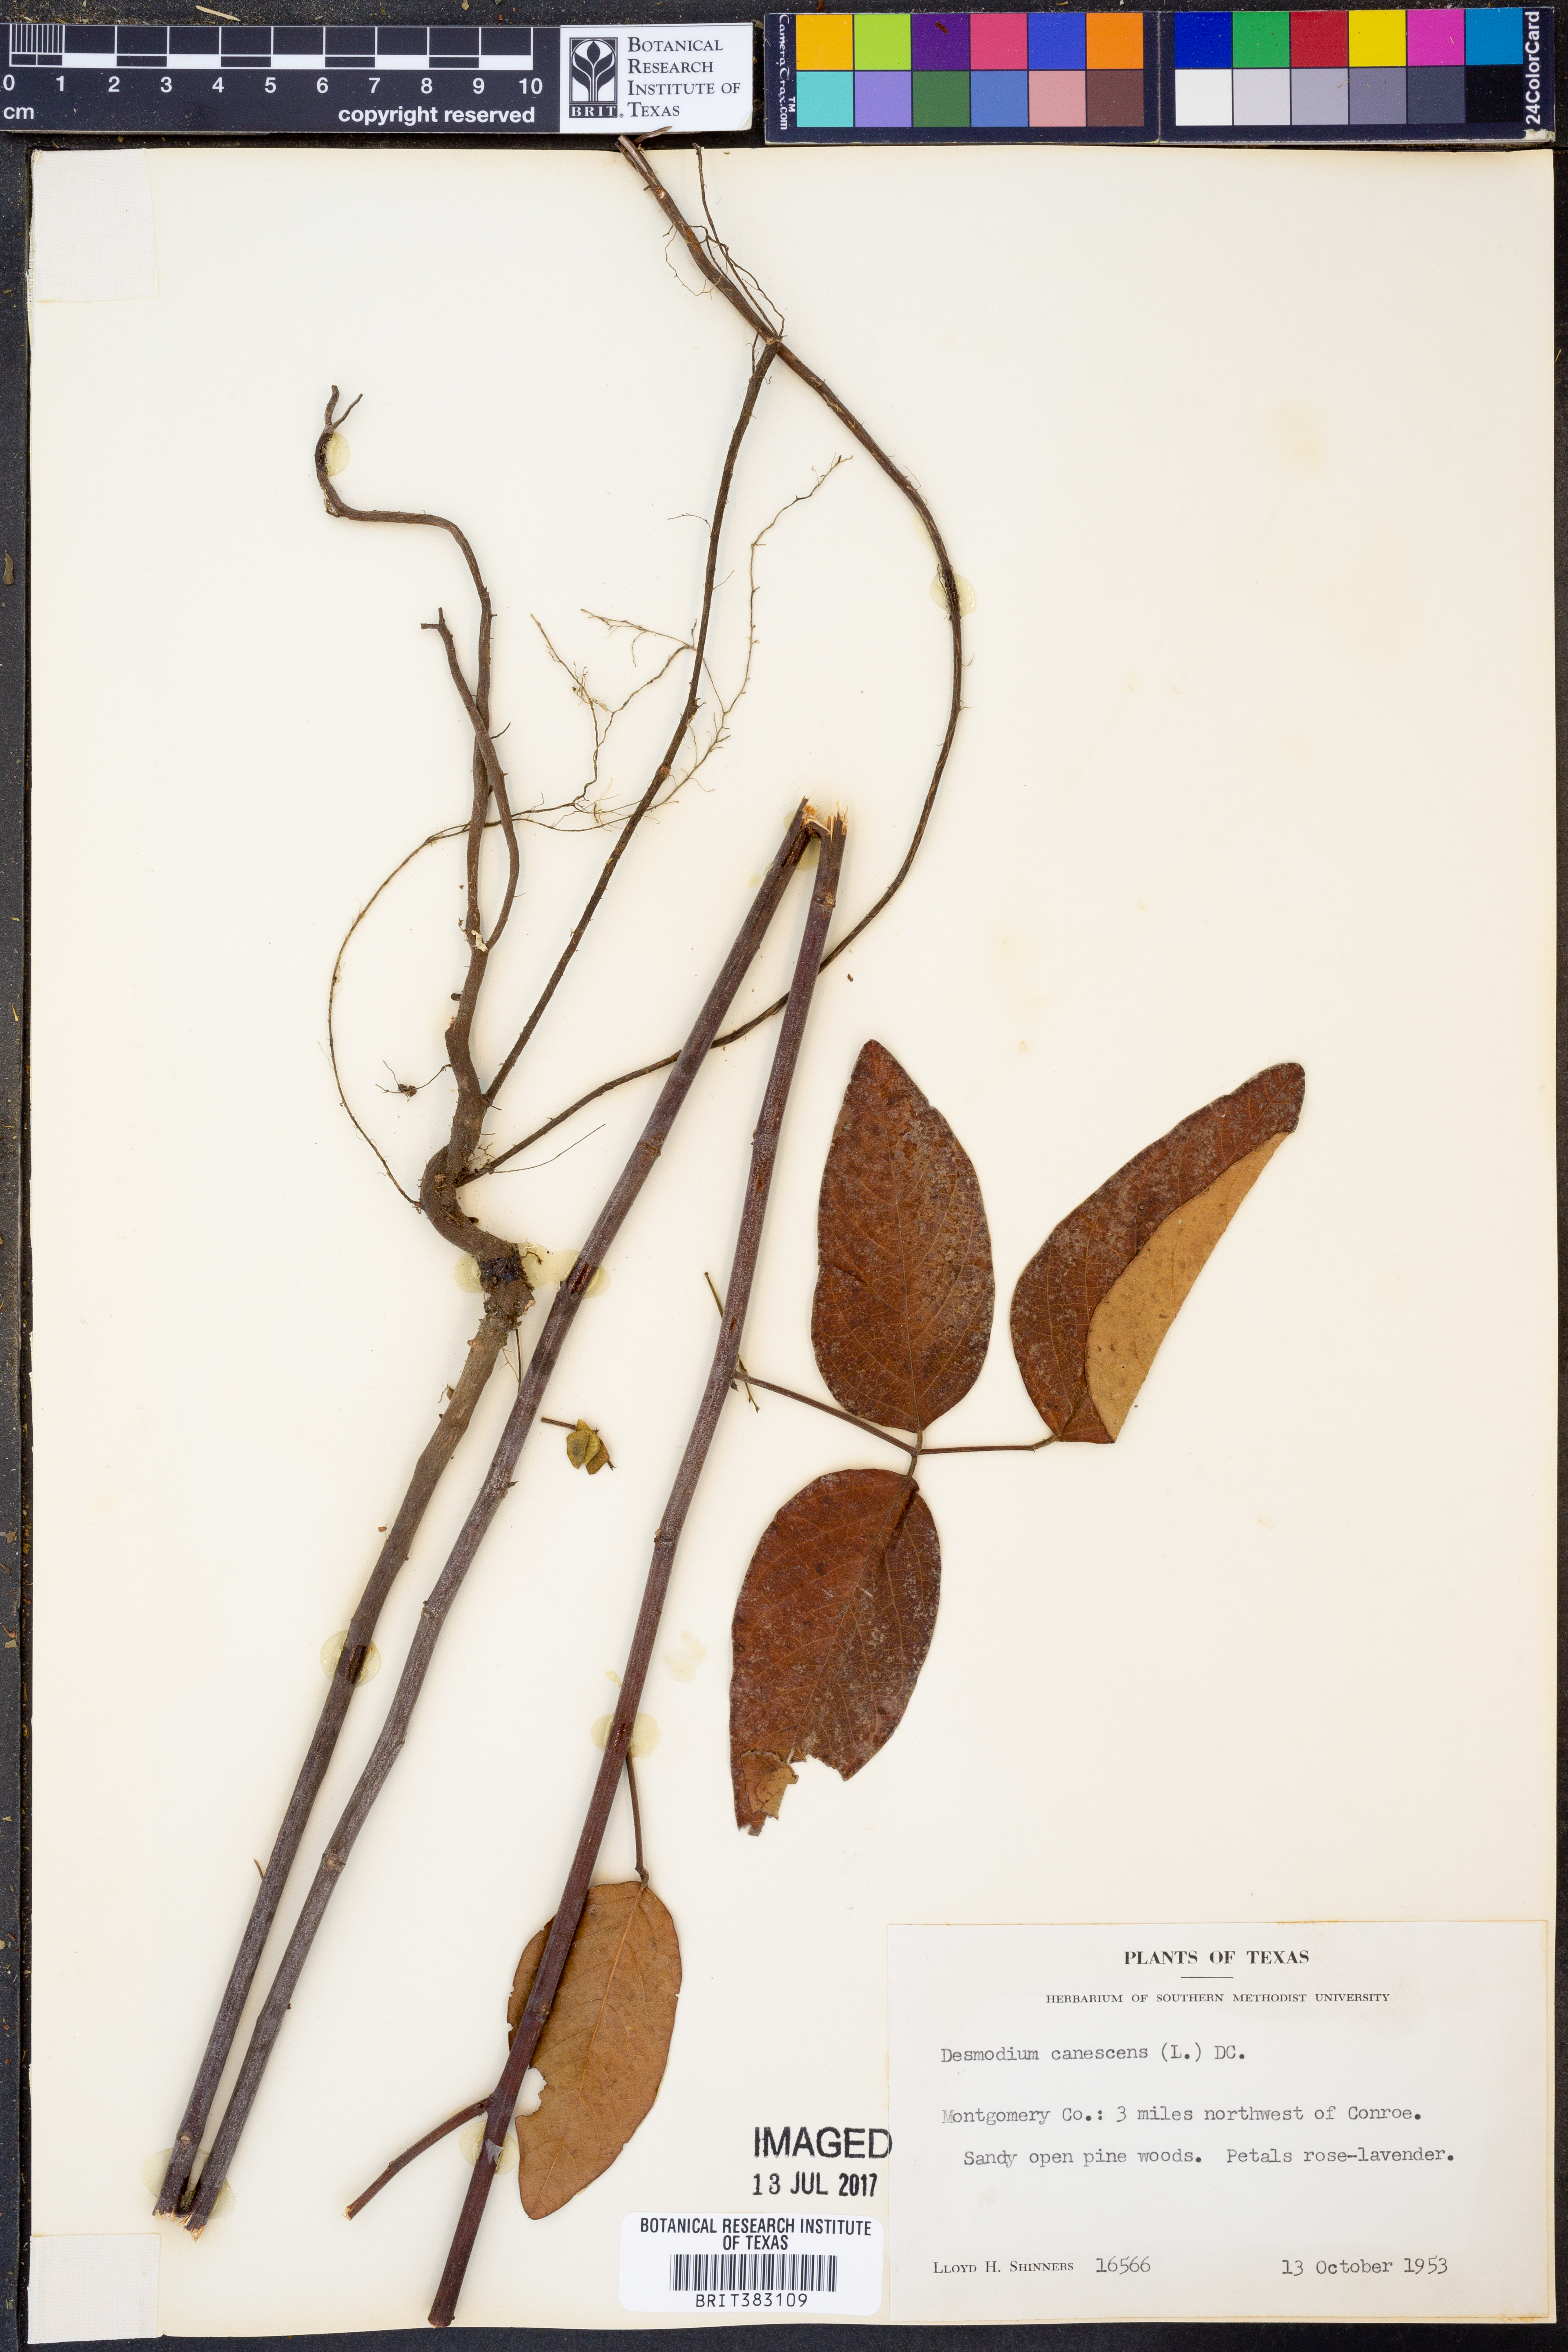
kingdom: Plantae
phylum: Tracheophyta
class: Magnoliopsida
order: Fabales
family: Fabaceae
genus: Desmodium
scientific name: Desmodium canescens
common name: Hoary tick-clover
